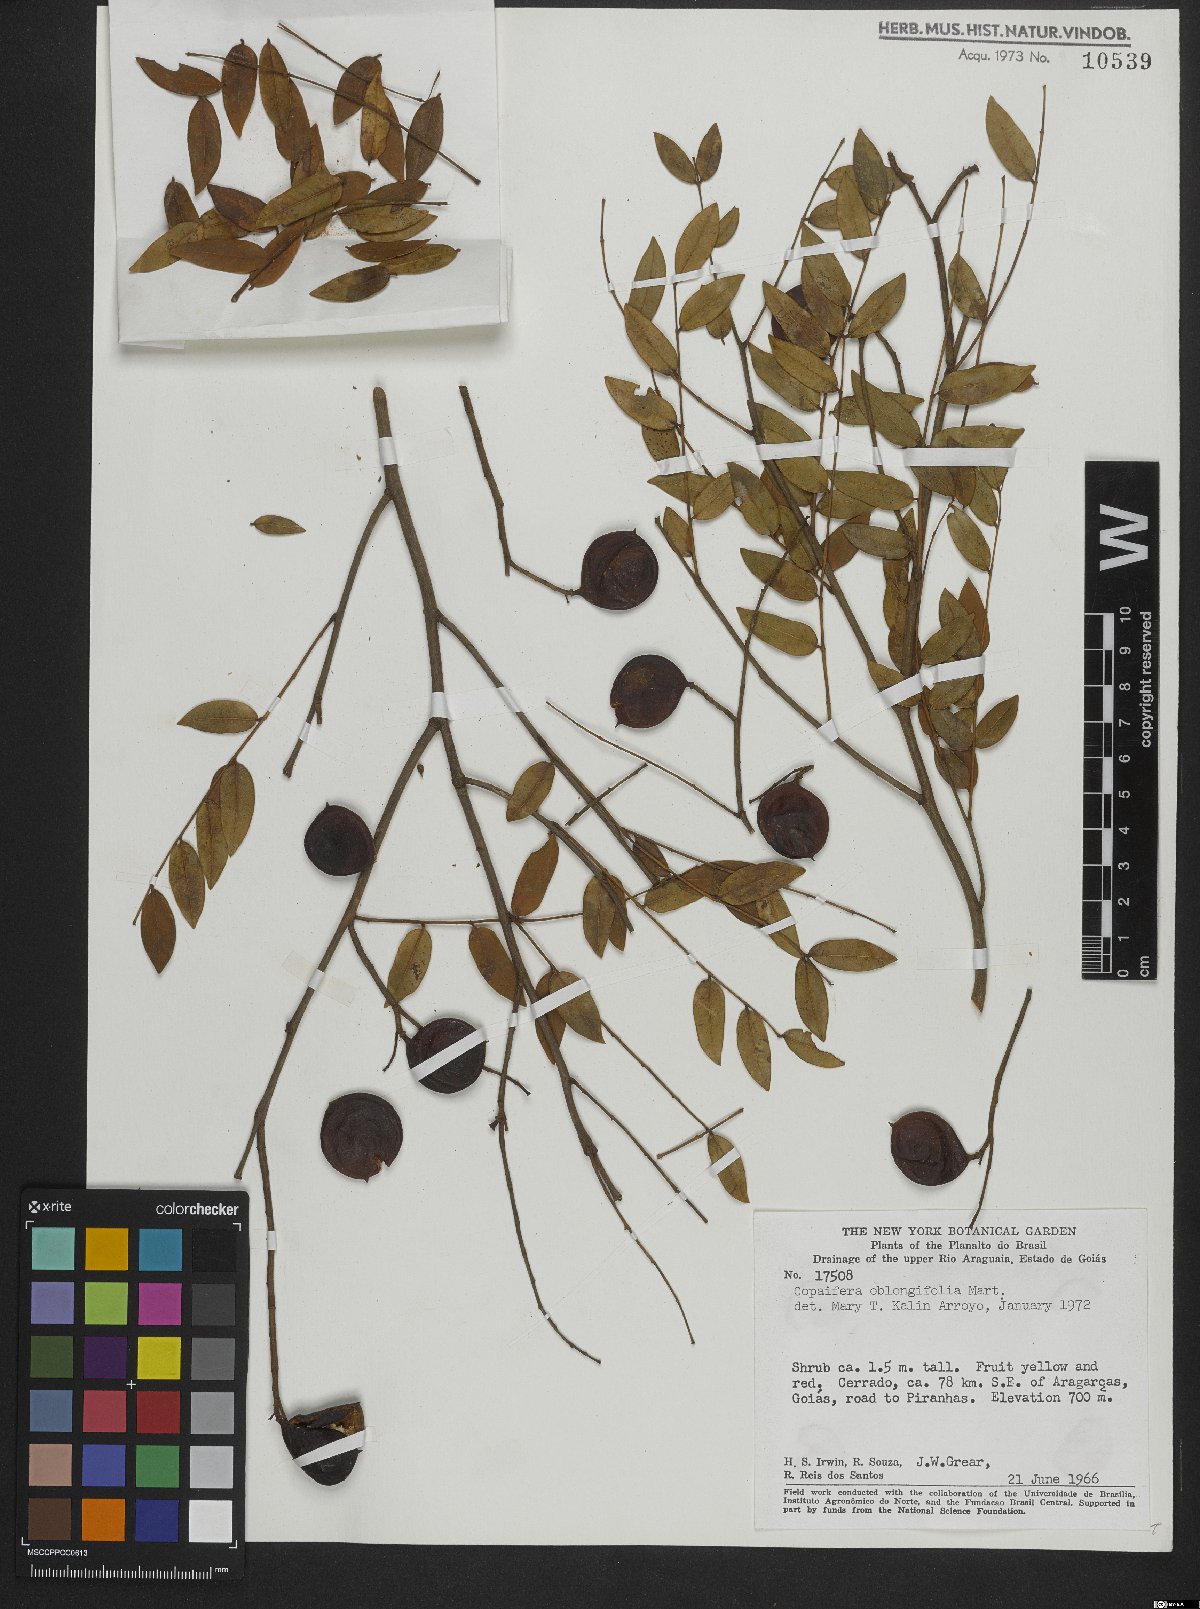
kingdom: Plantae
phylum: Tracheophyta
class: Magnoliopsida
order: Fabales
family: Fabaceae
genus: Copaifera
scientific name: Copaifera oblongifolia
